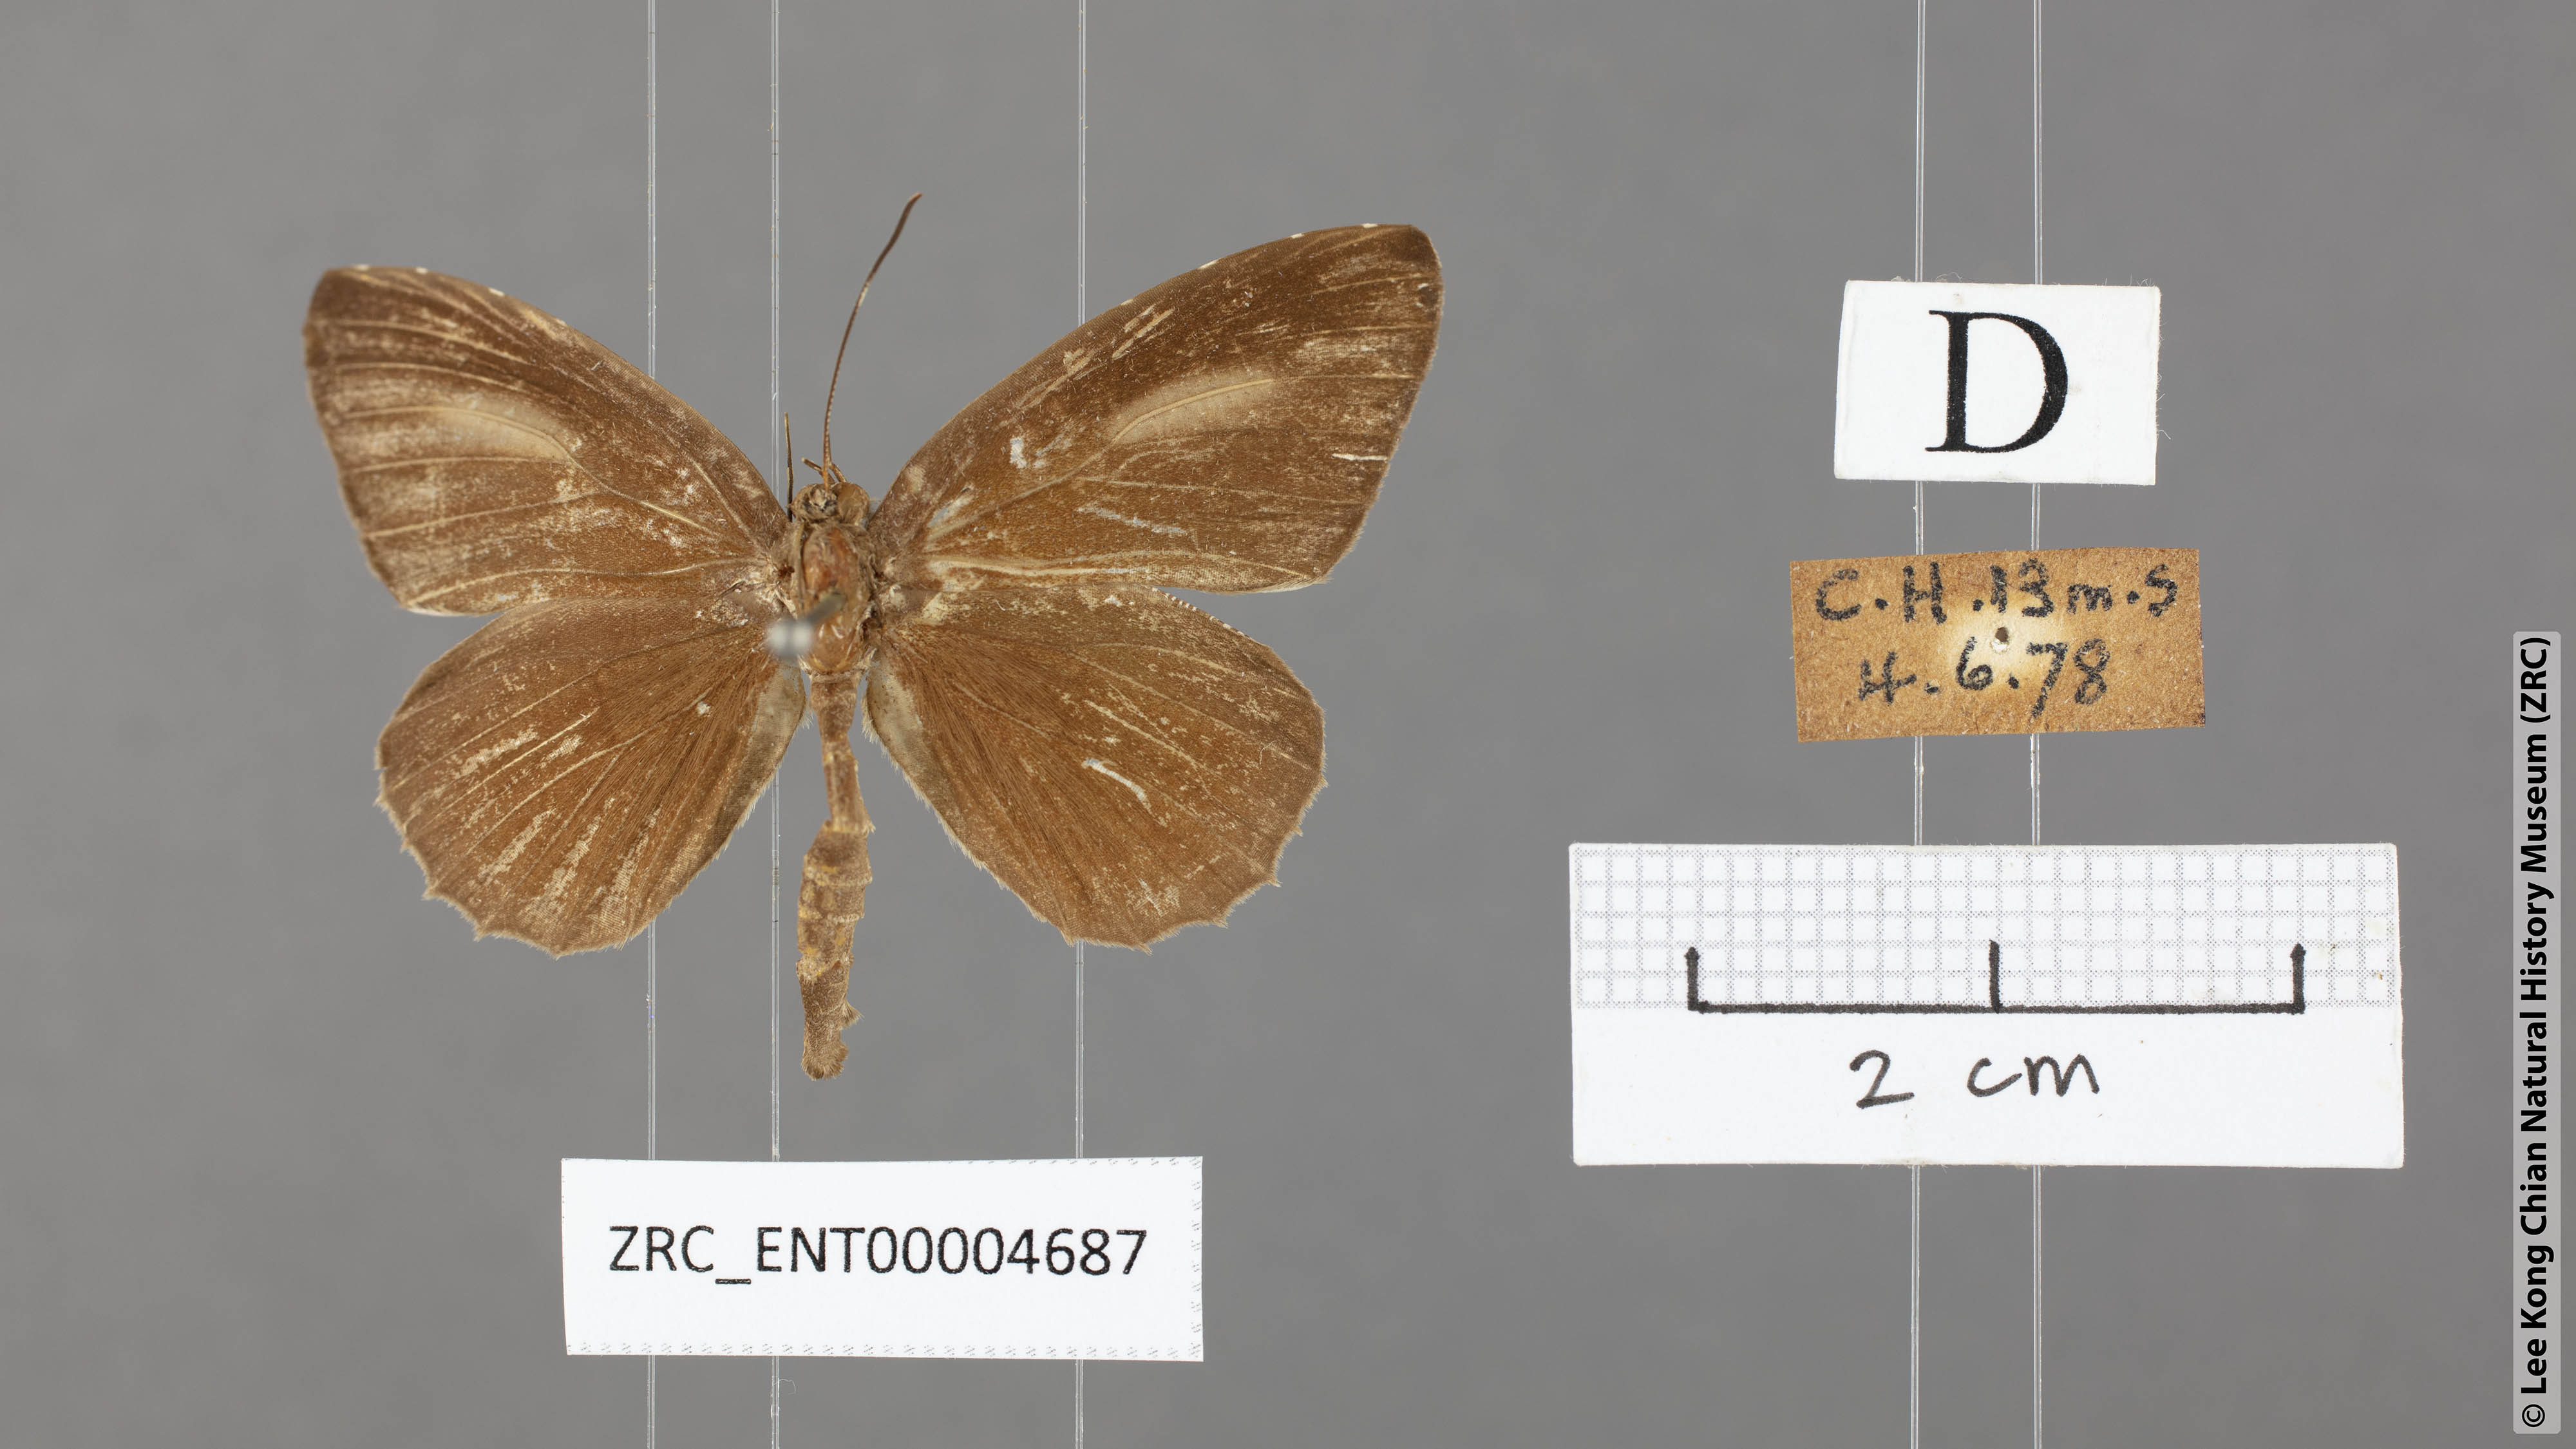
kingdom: Animalia
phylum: Arthropoda
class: Insecta
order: Lepidoptera
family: Lycaenidae
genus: Allotinus
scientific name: Allotinus horsfieldi
